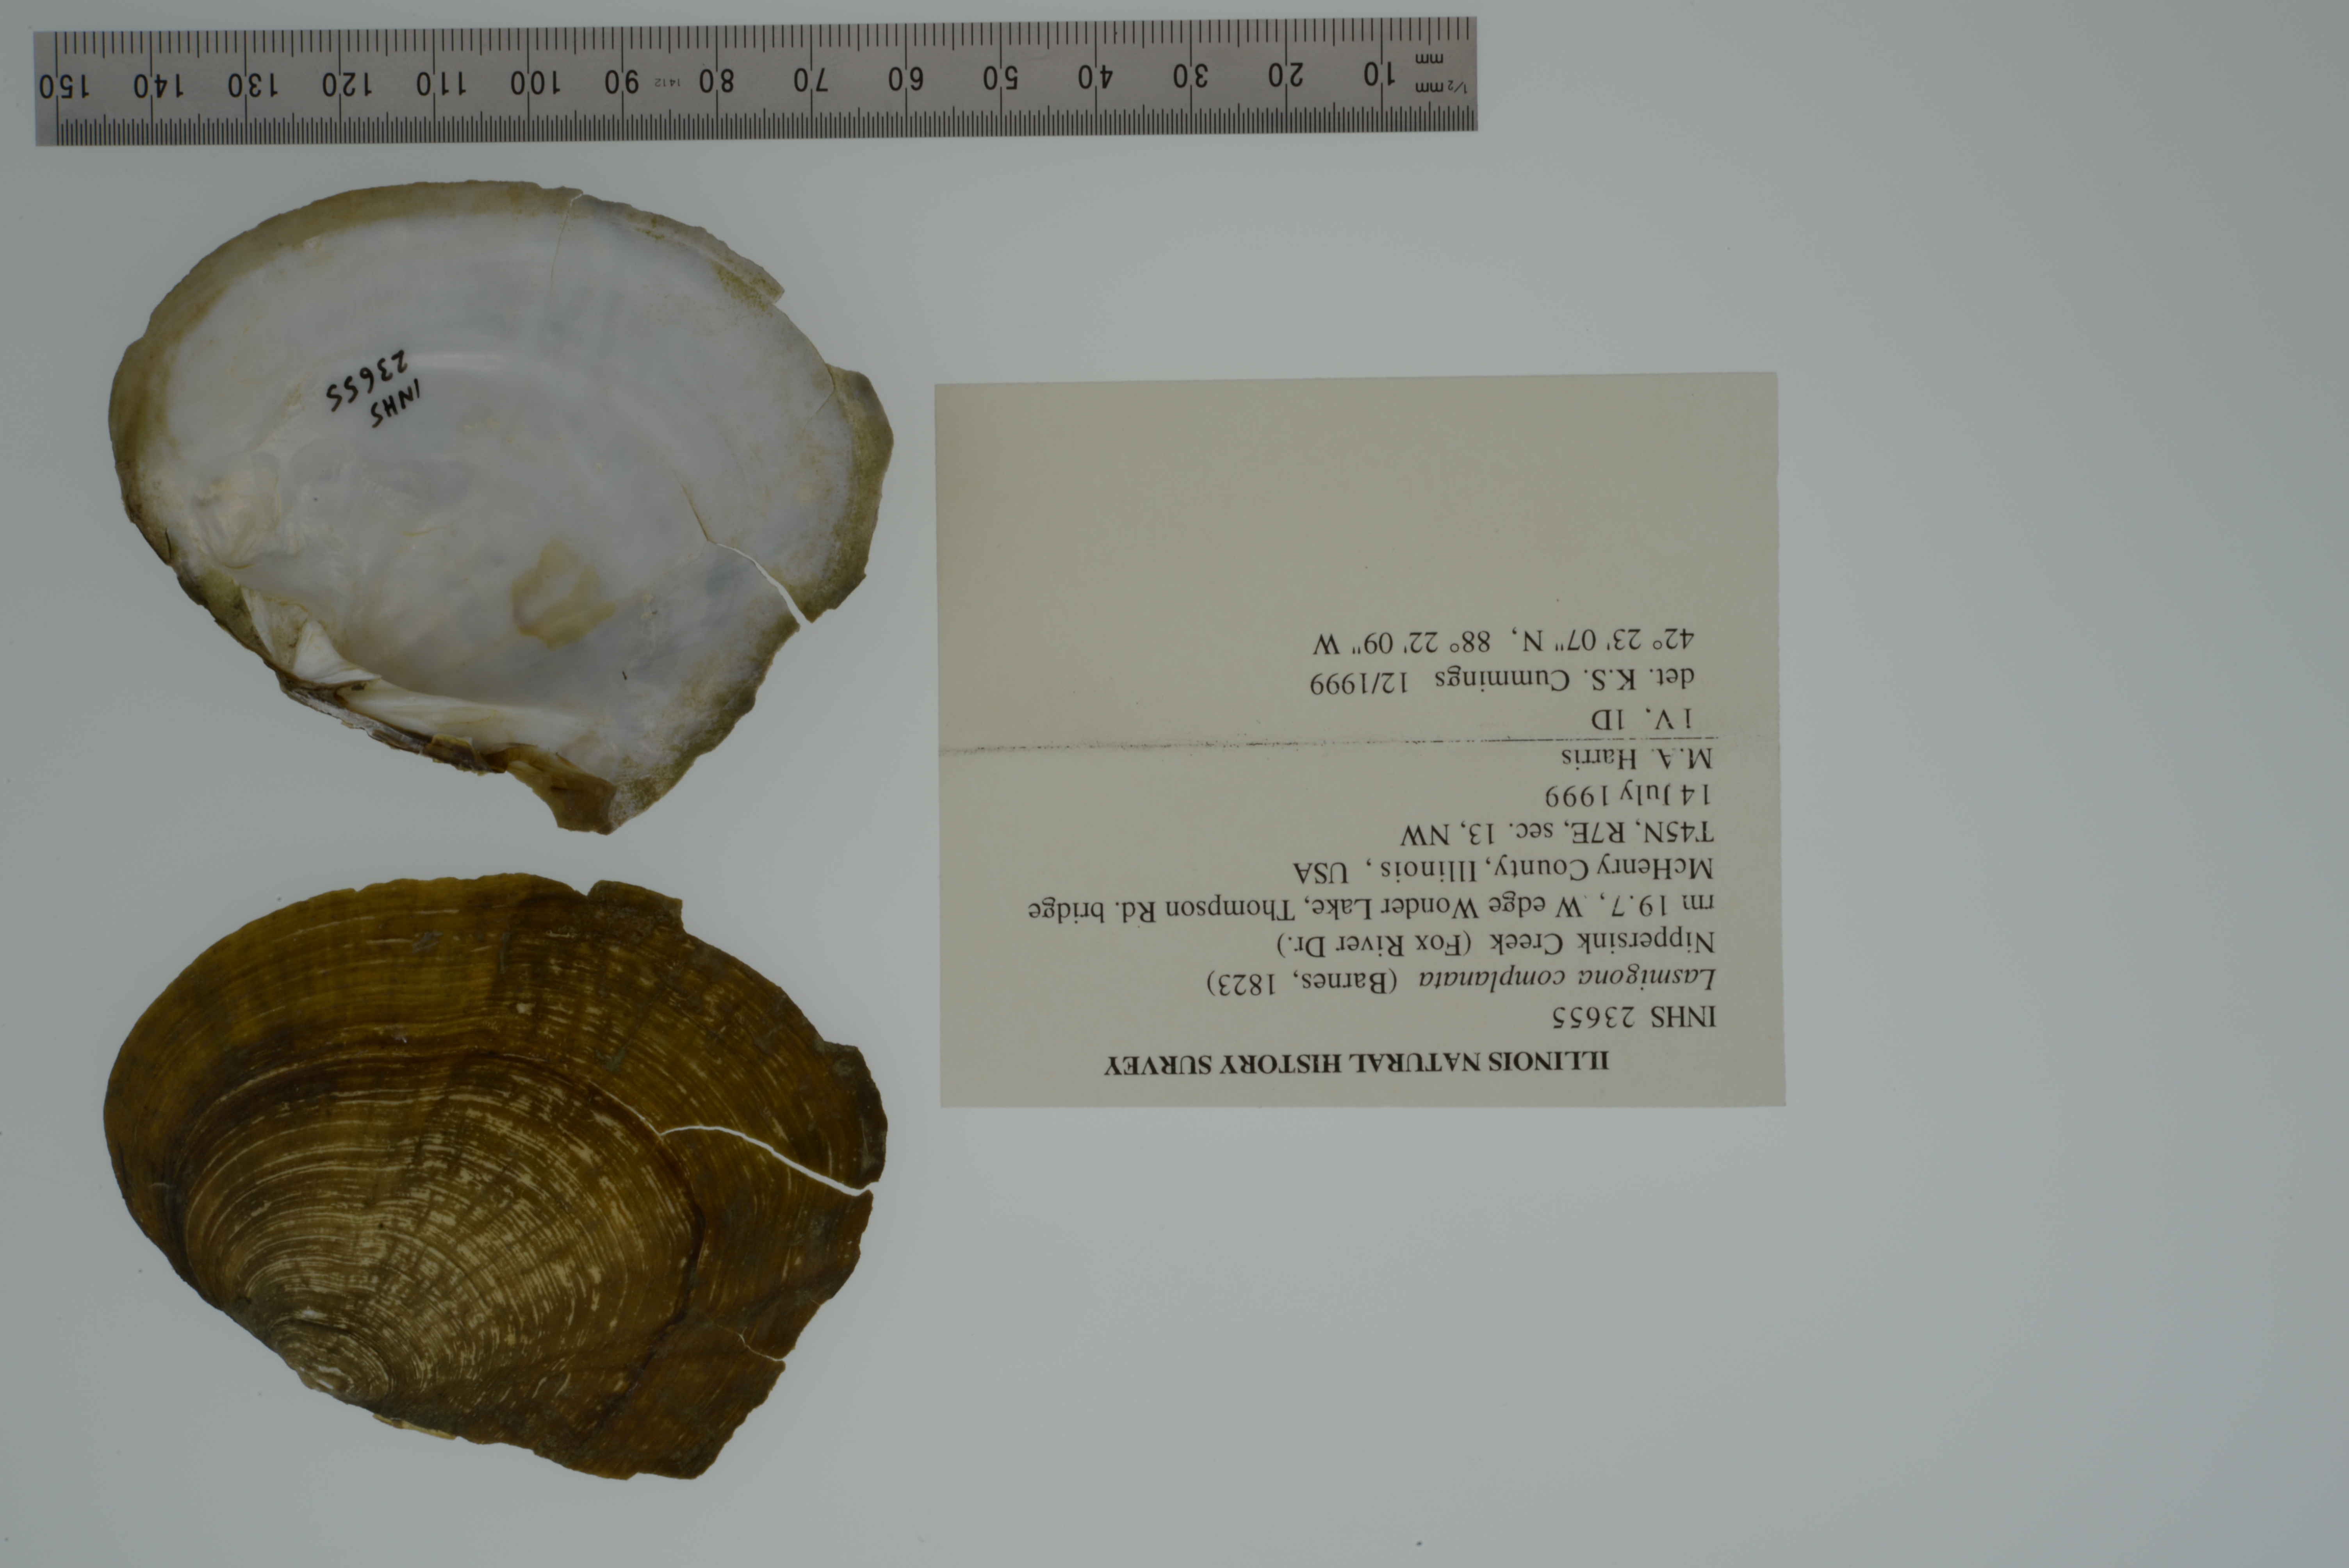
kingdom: Animalia
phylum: Mollusca
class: Bivalvia
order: Unionida
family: Unionidae
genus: Lasmigona
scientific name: Lasmigona complanata
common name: White heelsplitter
